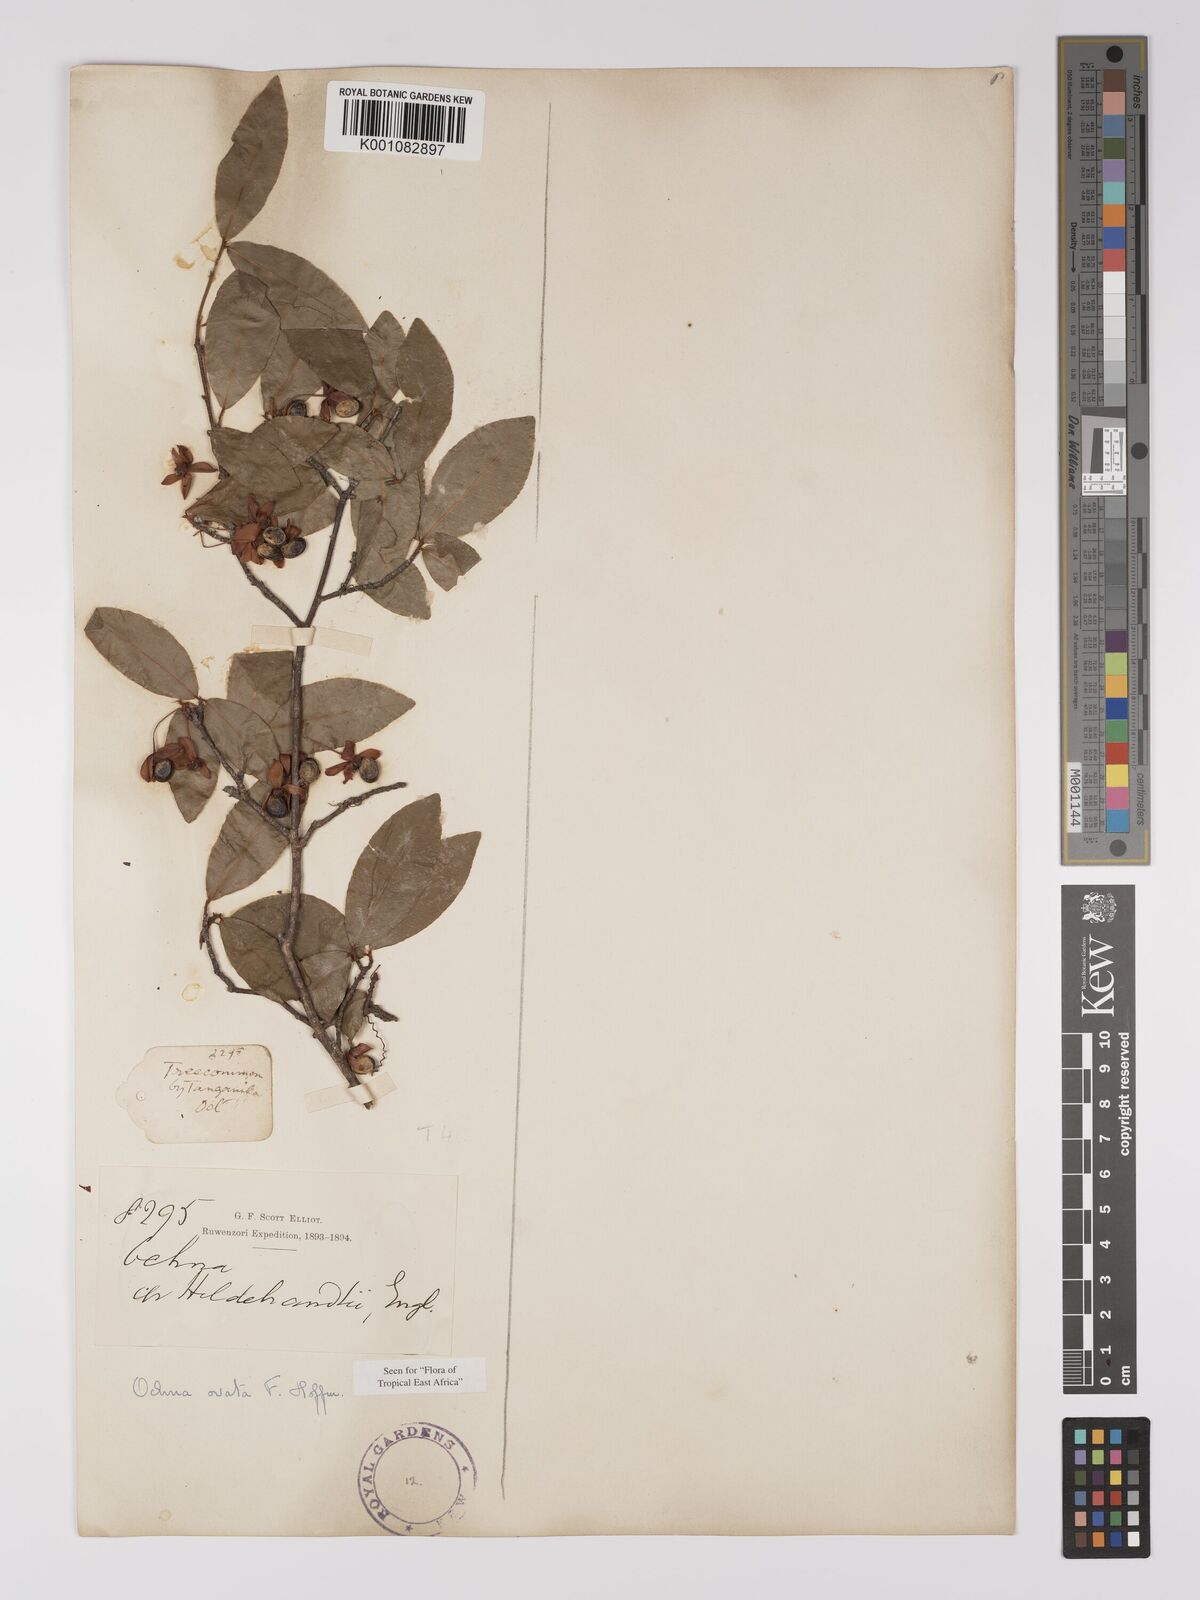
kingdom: Plantae
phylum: Tracheophyta
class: Magnoliopsida
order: Malpighiales
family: Ochnaceae
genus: Ochna
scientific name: Ochna ovata
